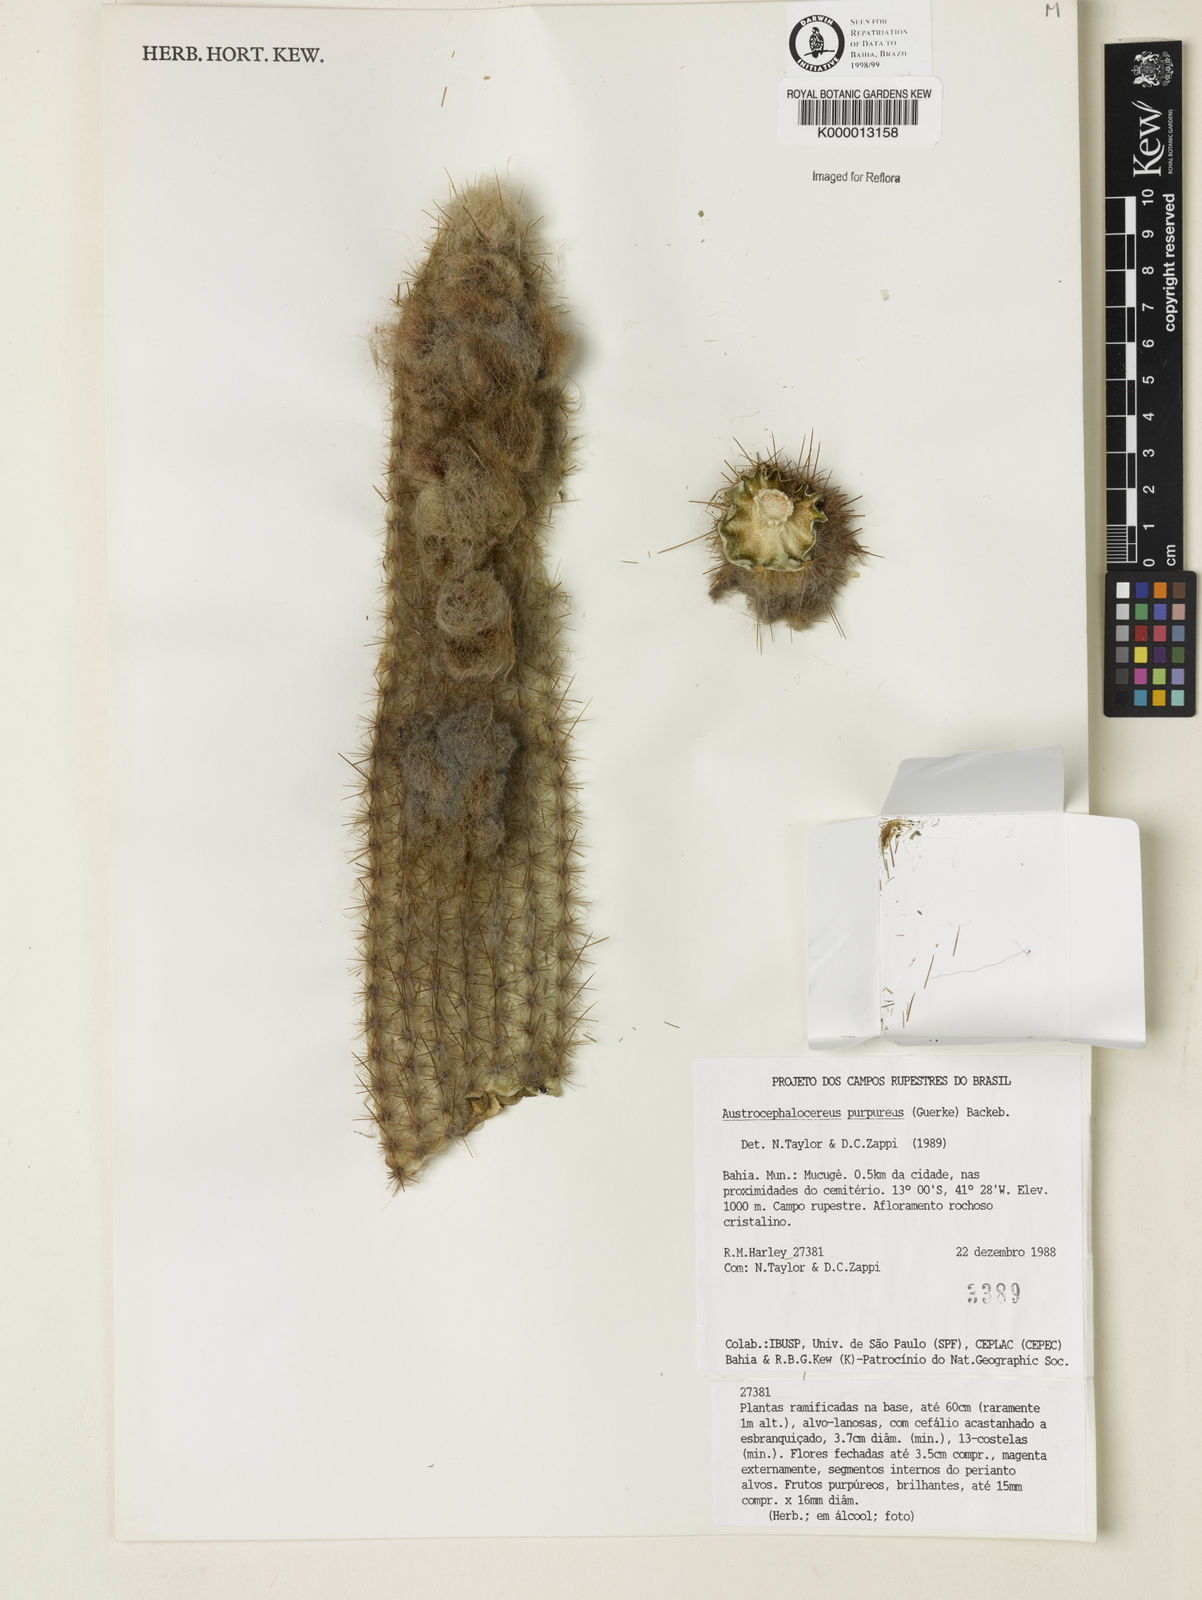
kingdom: Plantae
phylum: Tracheophyta
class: Magnoliopsida
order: Caryophyllales
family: Cactaceae
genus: Micranthocereus
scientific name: Micranthocereus purpureus
